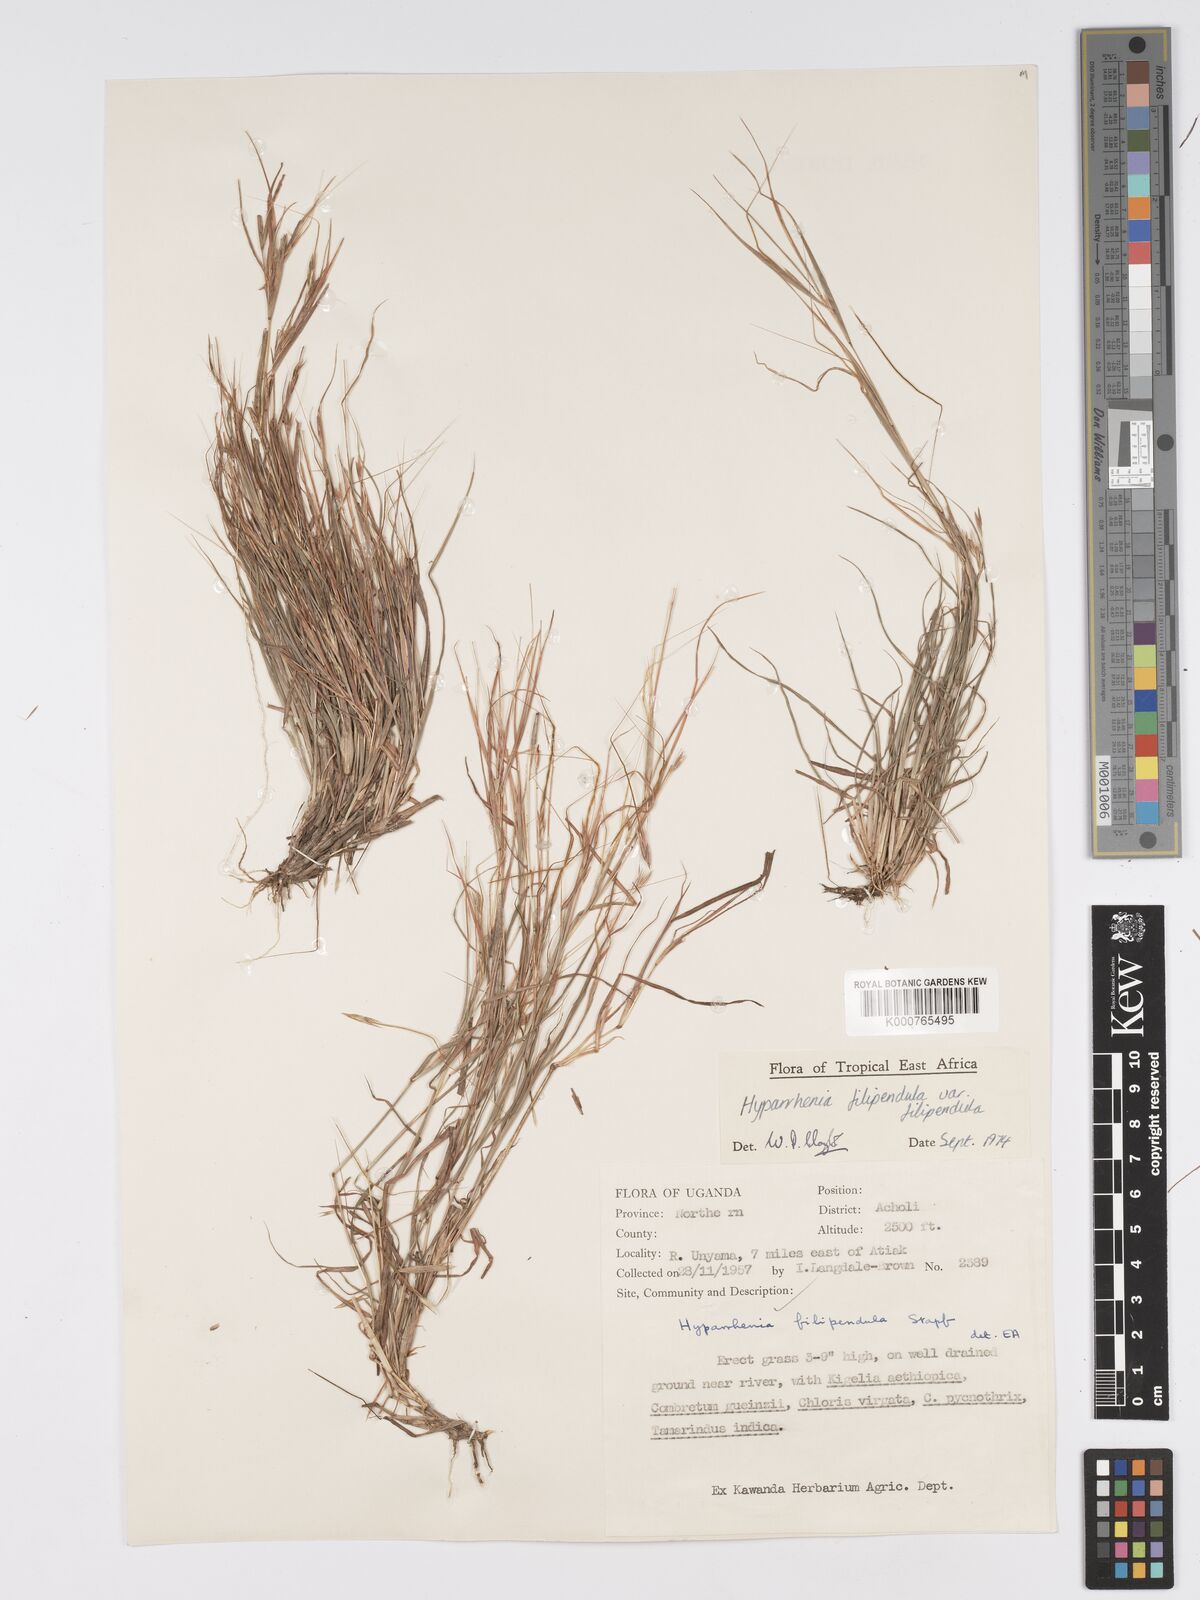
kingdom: Plantae
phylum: Tracheophyta
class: Liliopsida
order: Poales
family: Poaceae
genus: Hyparrhenia
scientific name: Hyparrhenia filipendula
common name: Tambookie grass
